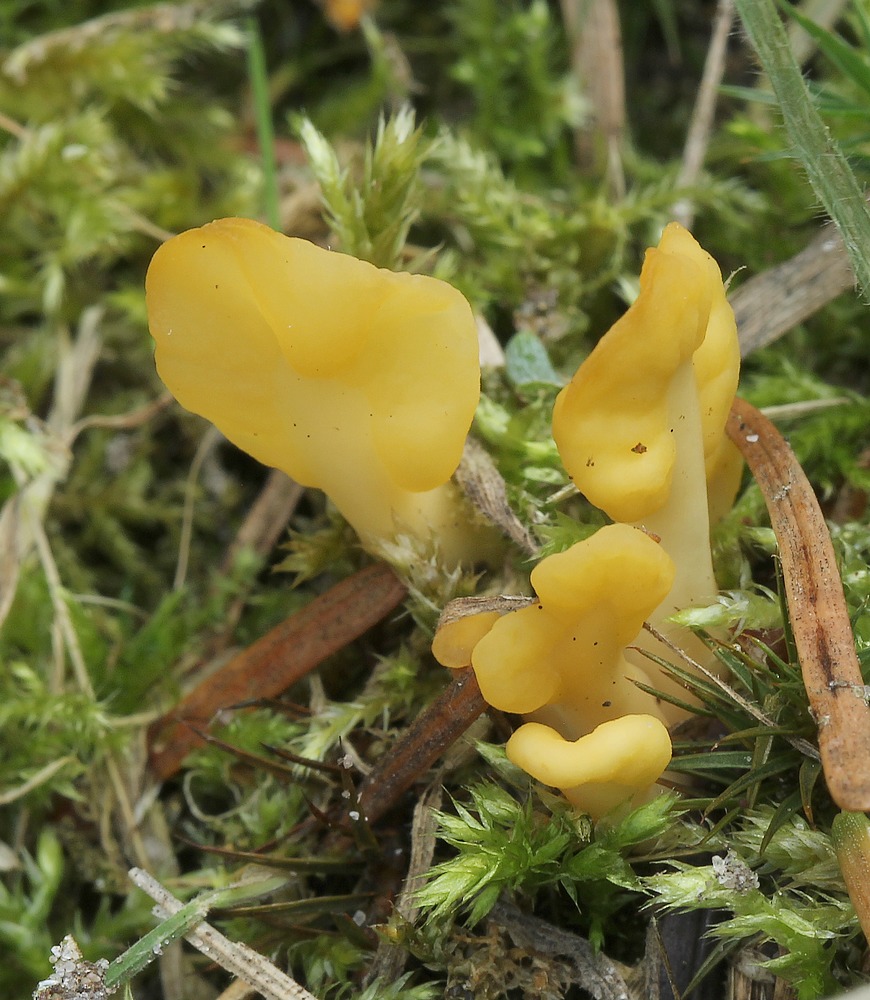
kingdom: Fungi
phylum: Ascomycota
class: Leotiomycetes
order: Rhytismatales
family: Cudoniaceae
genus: Spathularia
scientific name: Spathularia flavida
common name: gul spatelsvamp
